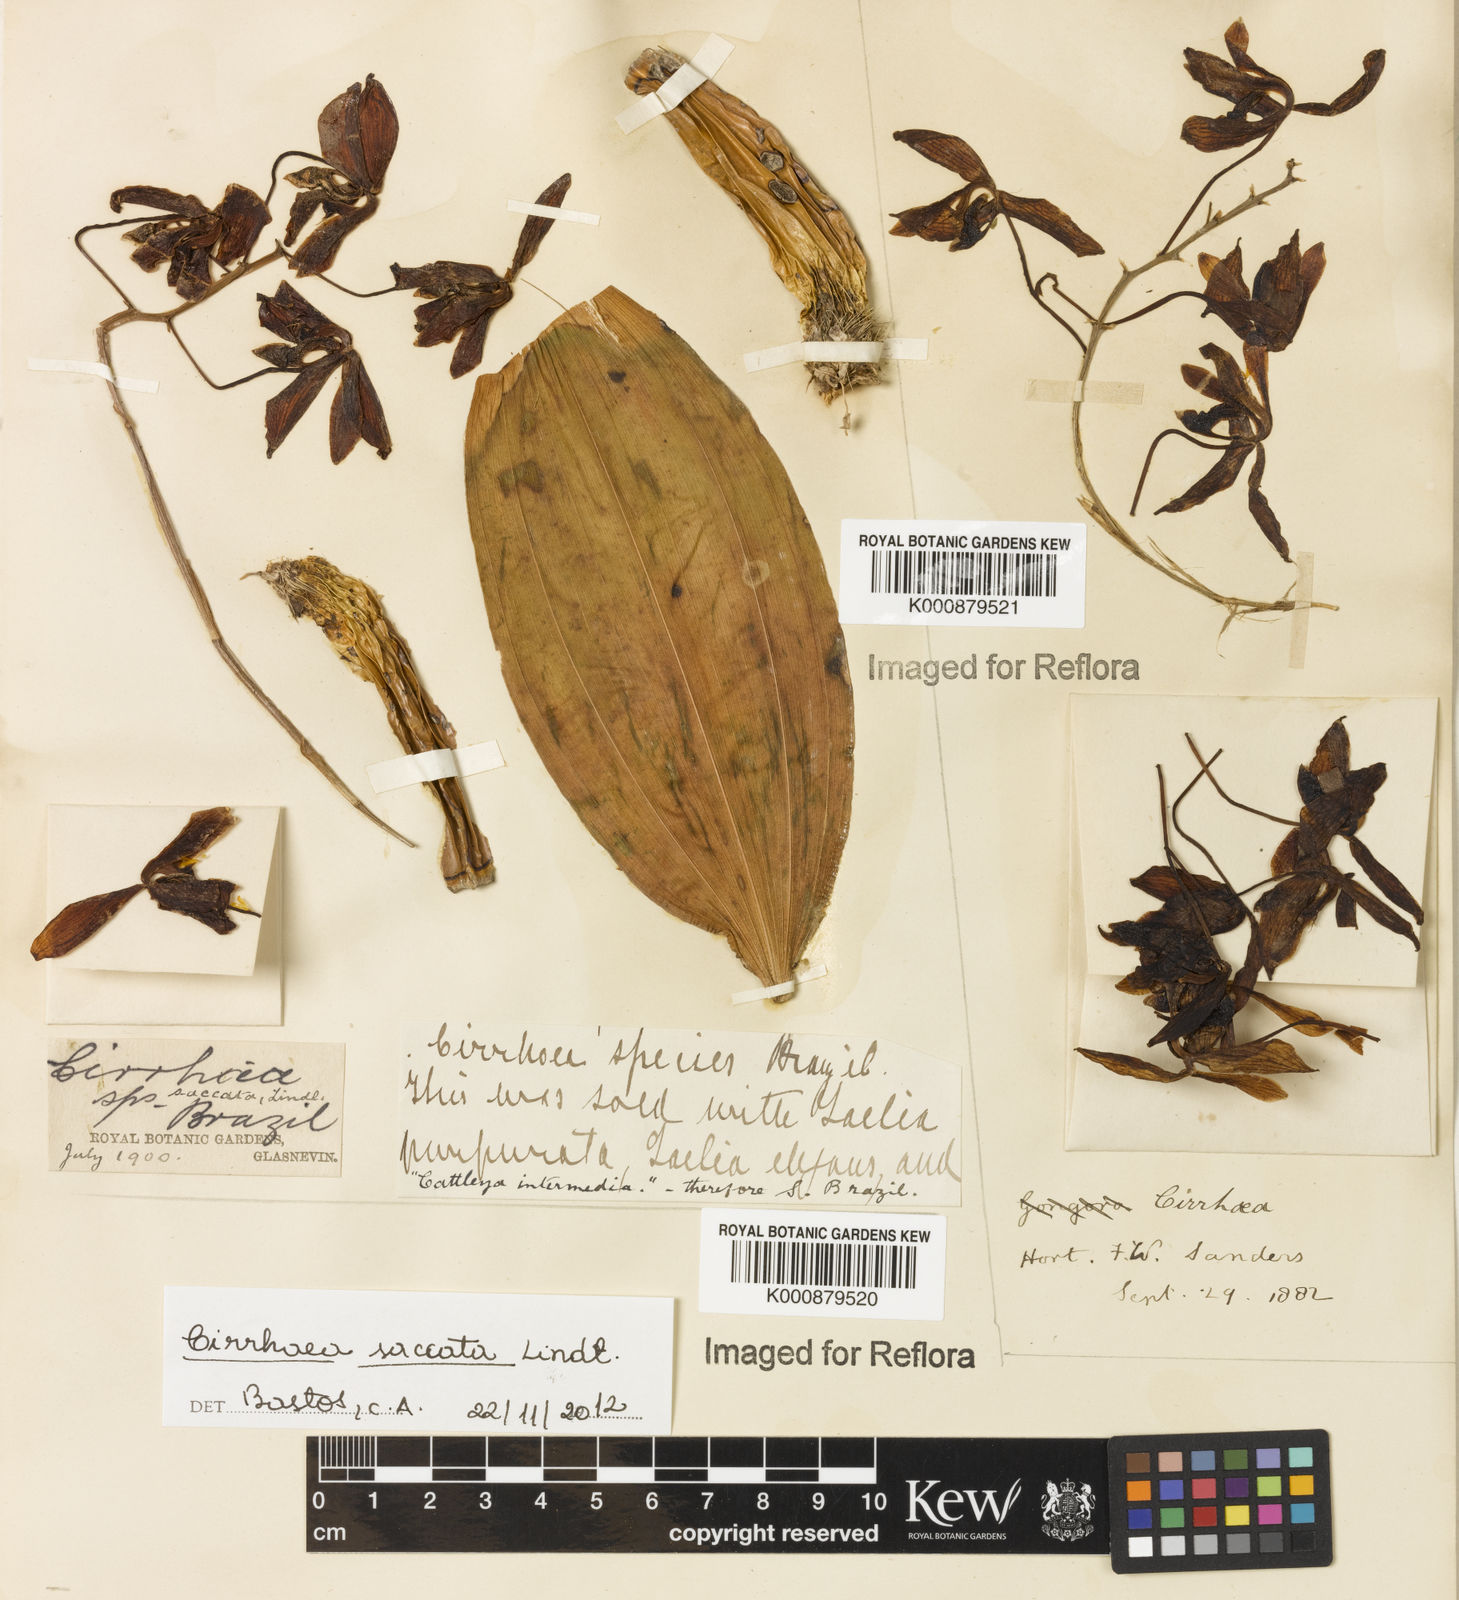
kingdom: Plantae
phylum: Tracheophyta
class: Liliopsida
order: Asparagales
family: Orchidaceae
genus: Cirrhaea
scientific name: Cirrhaea fuscolutea
